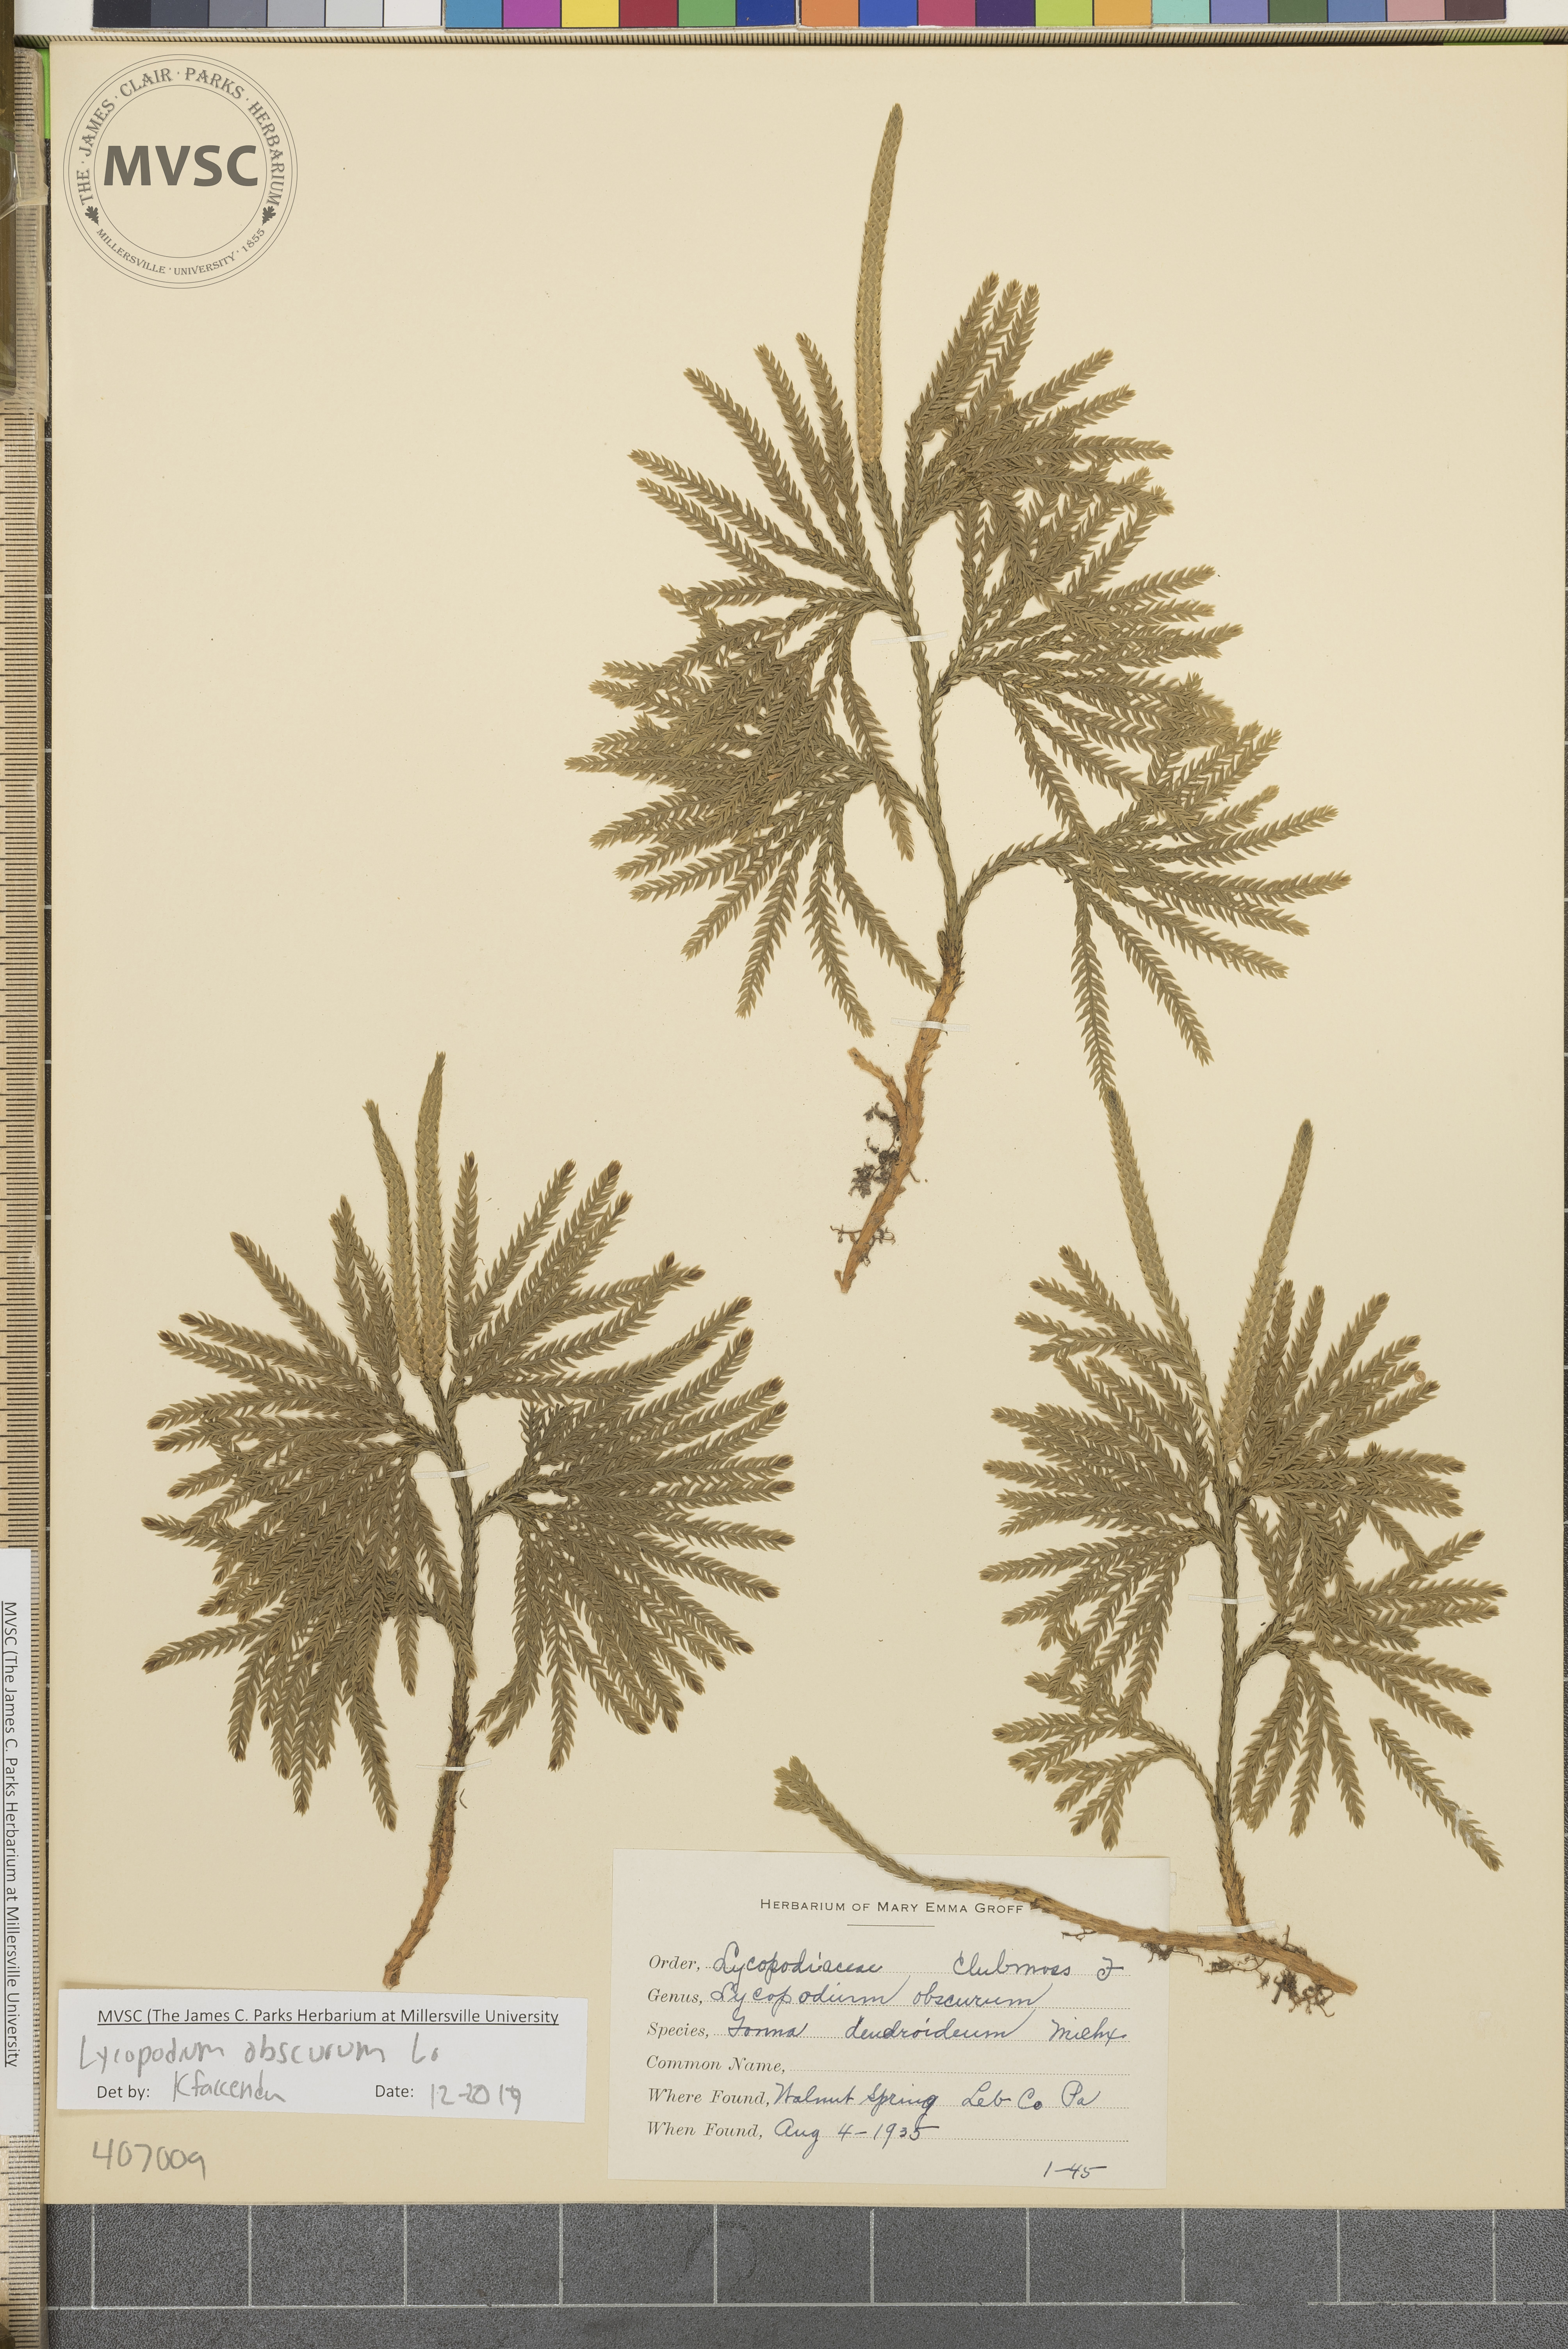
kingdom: Plantae
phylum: Tracheophyta
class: Lycopodiopsida
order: Lycopodiales
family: Lycopodiaceae
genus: Dendrolycopodium
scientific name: Dendrolycopodium obscurum
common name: Common ground-pine
